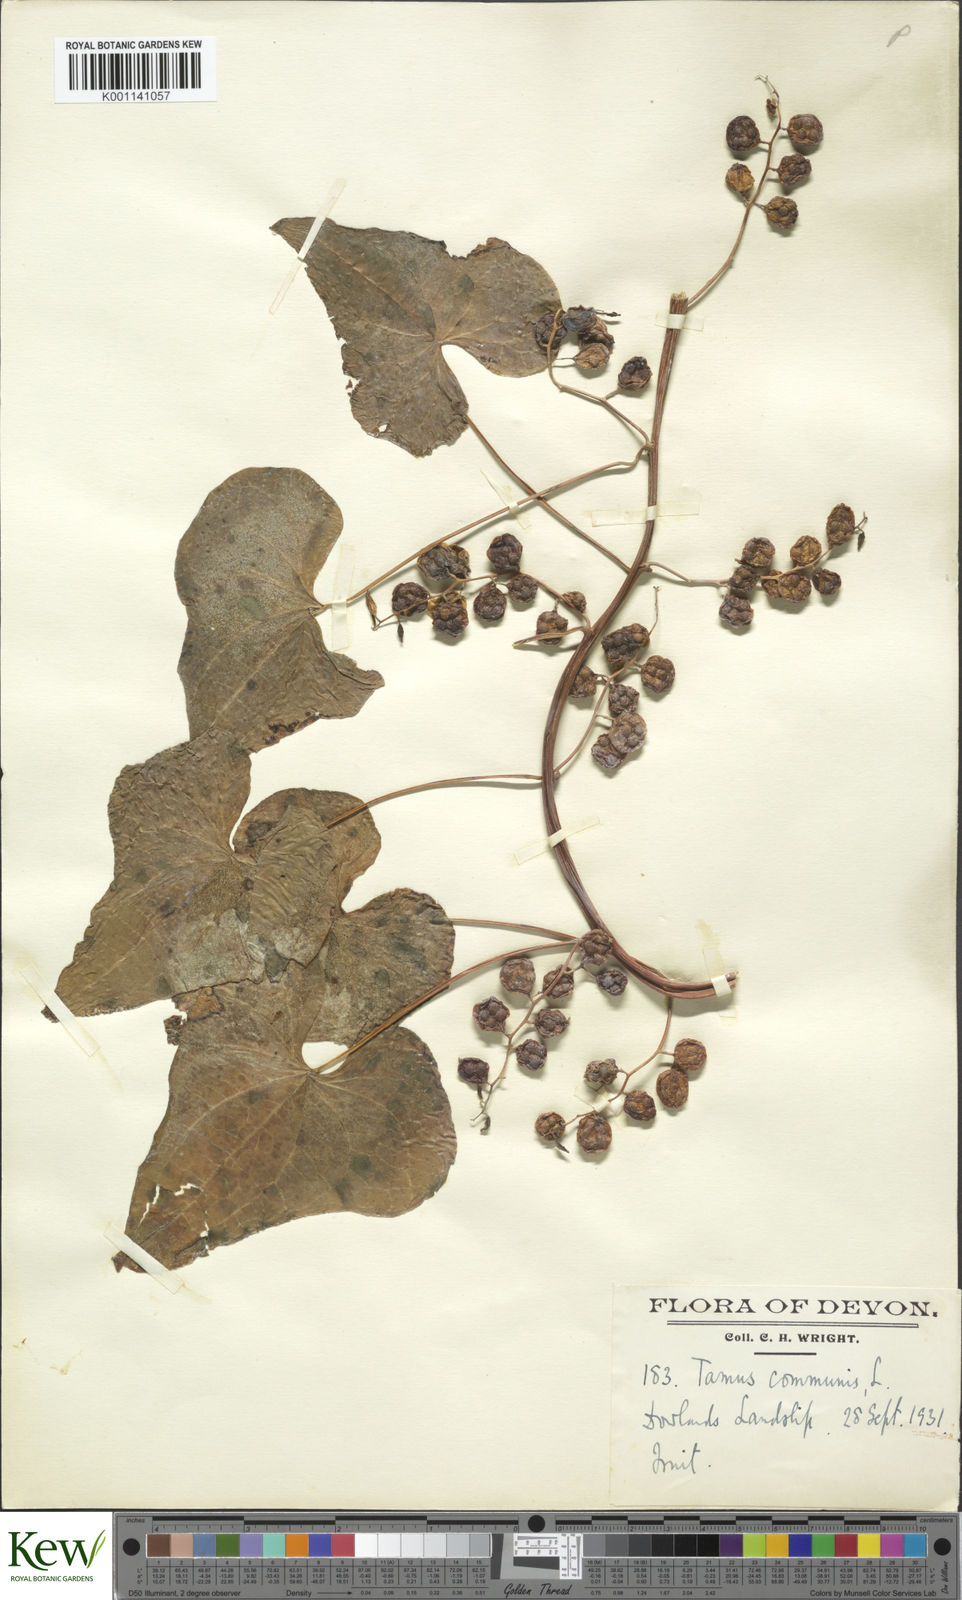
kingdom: Plantae
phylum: Tracheophyta
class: Liliopsida
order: Dioscoreales
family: Dioscoreaceae
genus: Dioscorea
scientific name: Dioscorea communis
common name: Black-bindweed
